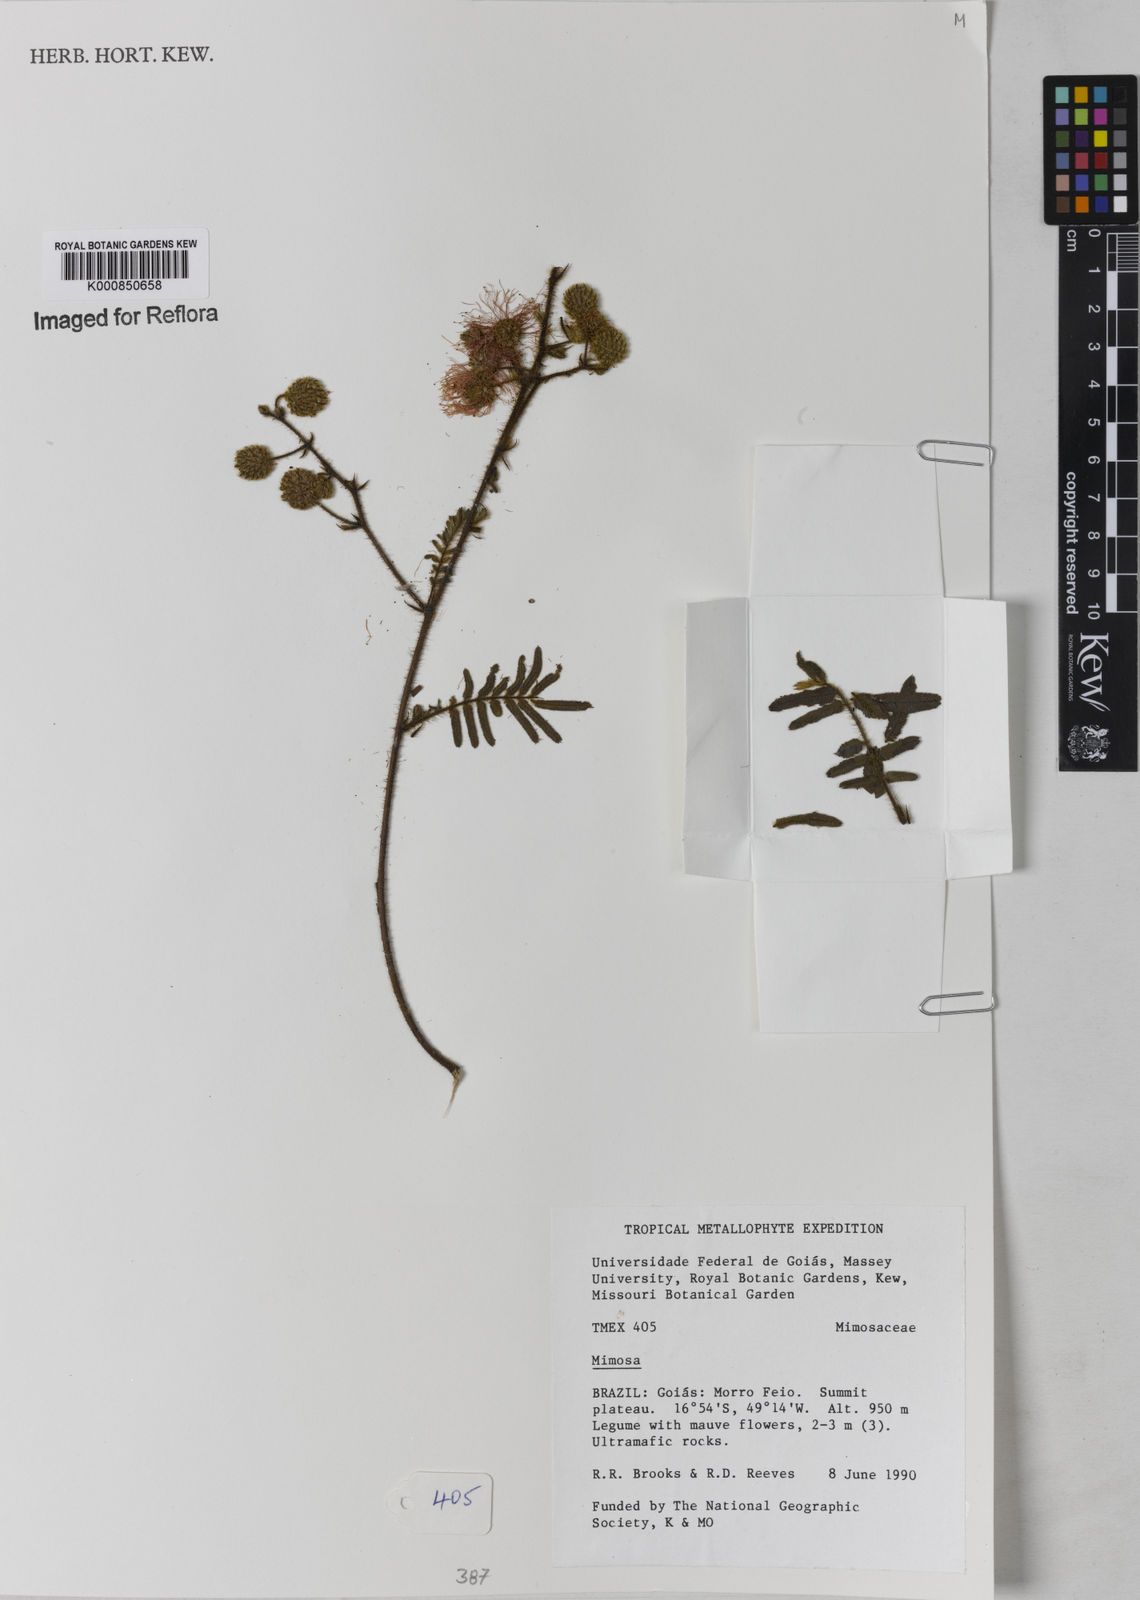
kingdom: Plantae
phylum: Tracheophyta
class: Magnoliopsida
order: Fabales
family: Fabaceae
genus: Mimosa
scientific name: Mimosa melanocarpa
